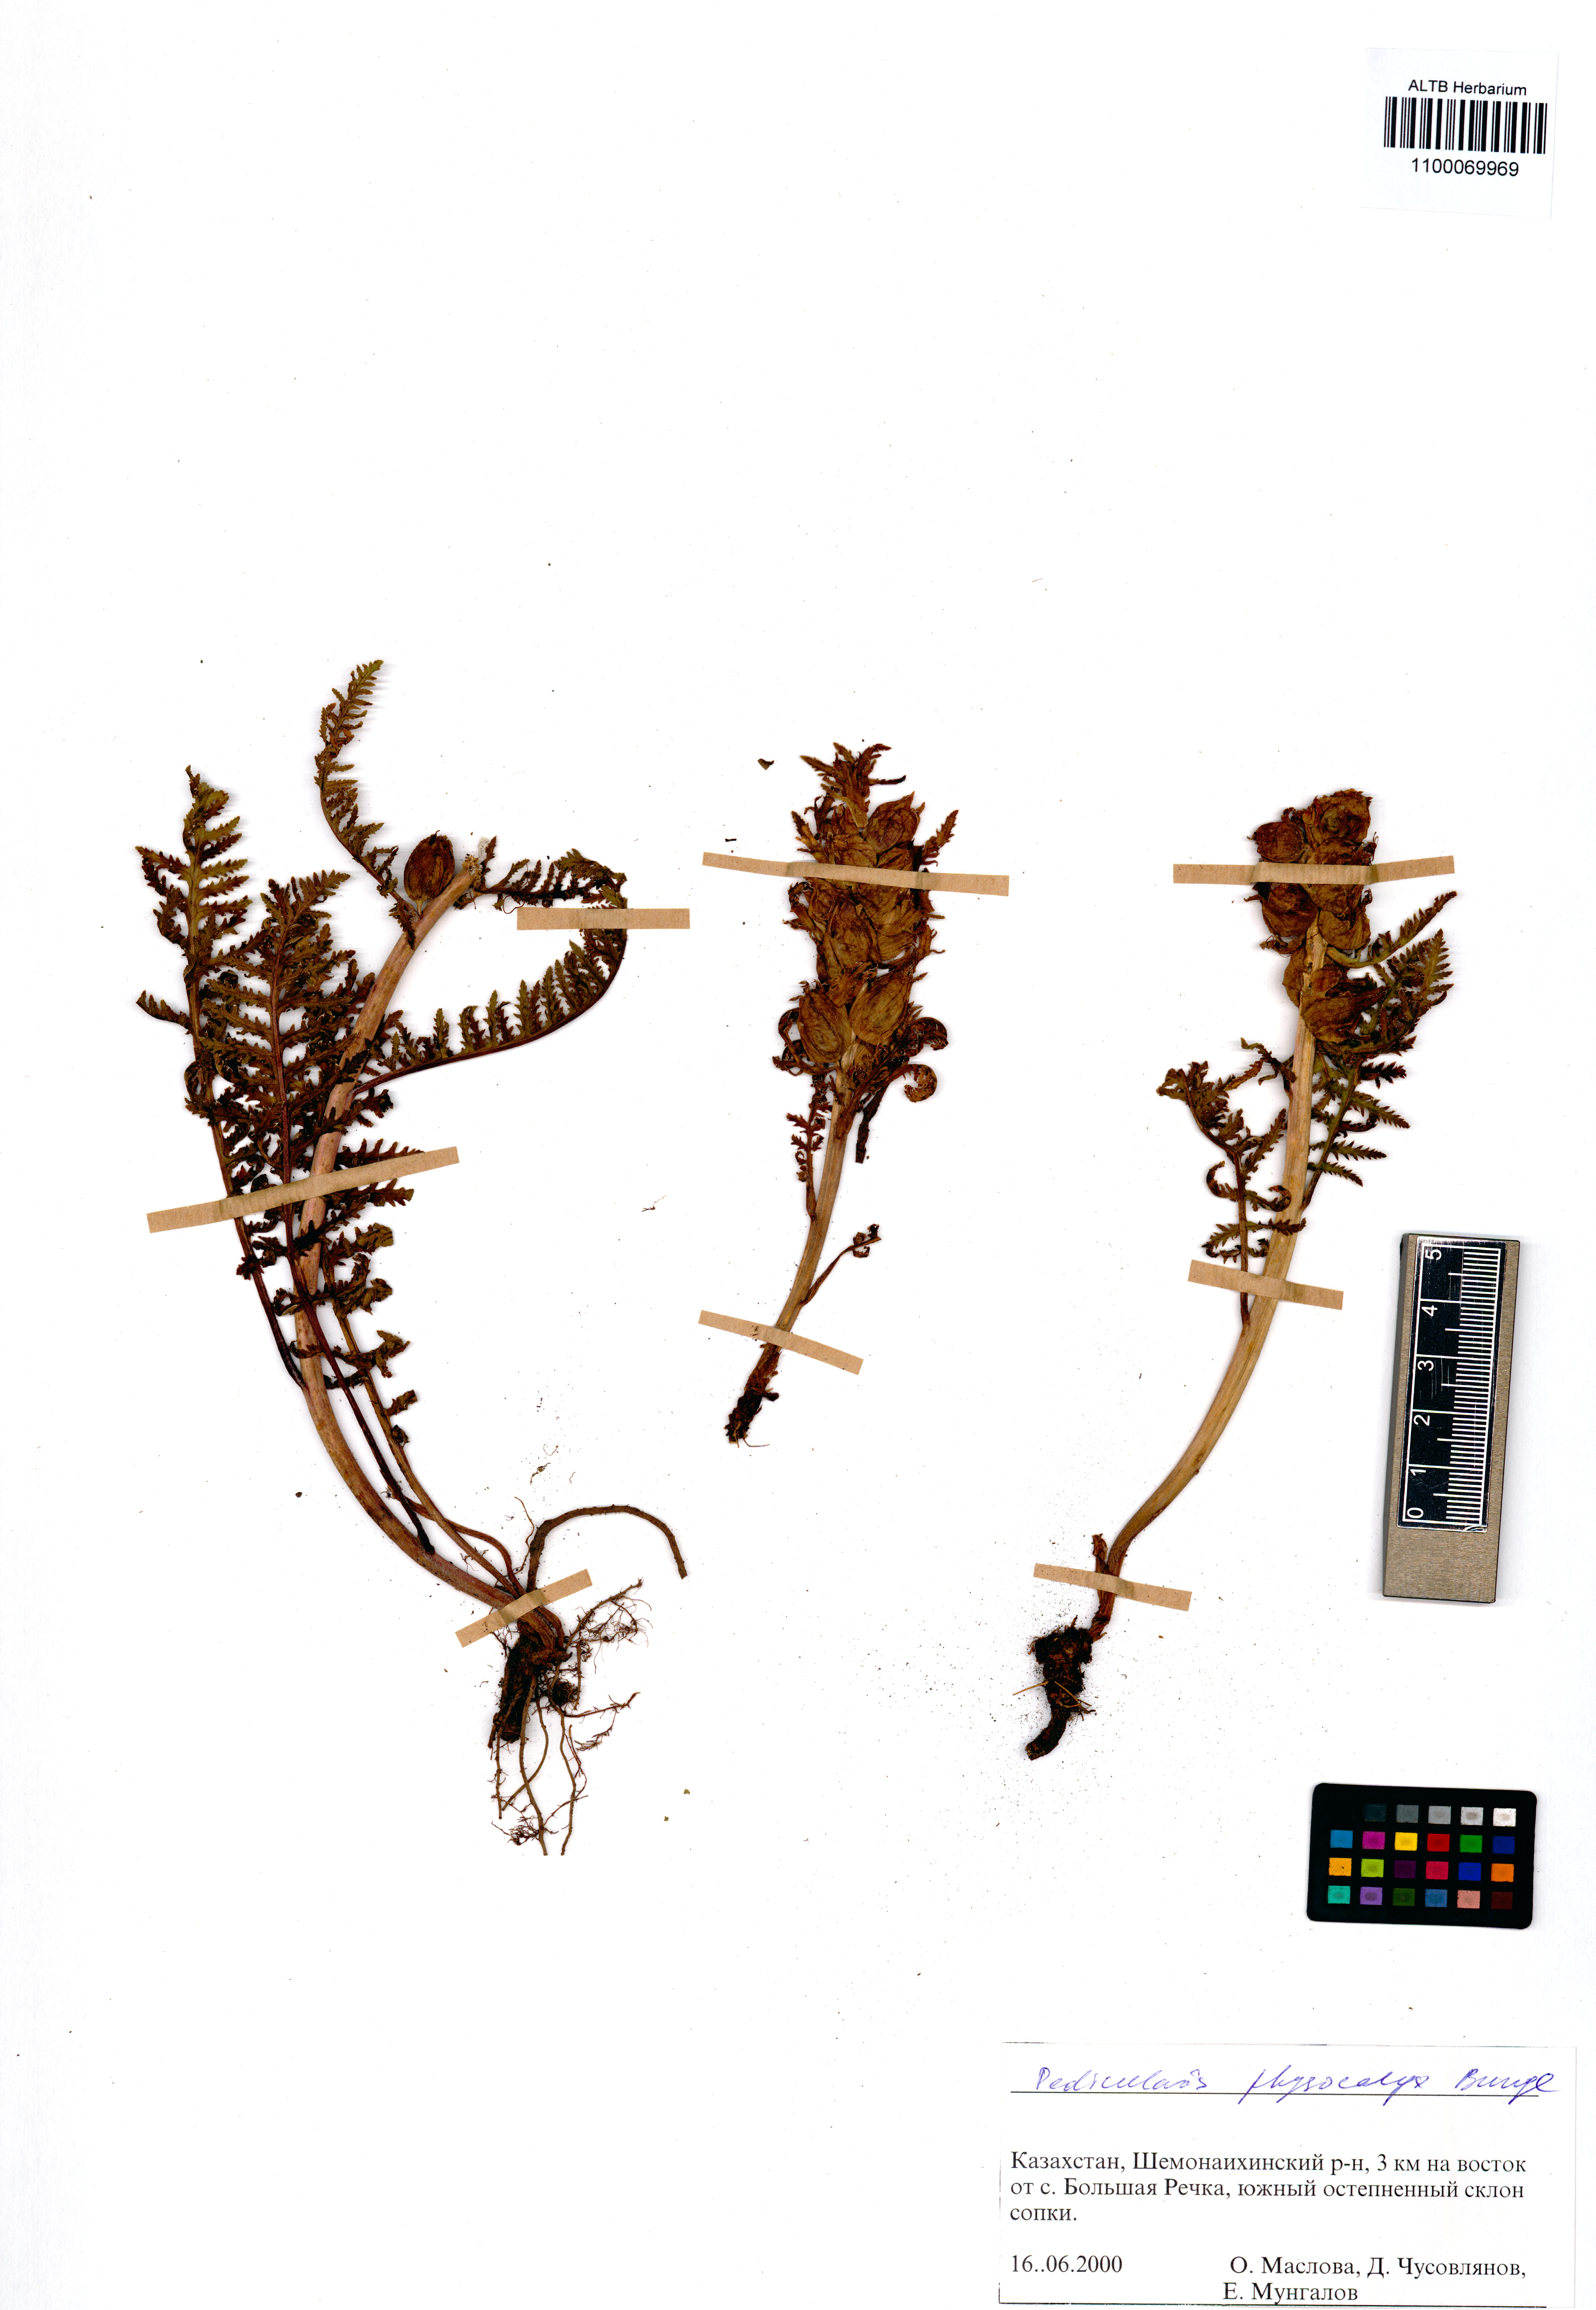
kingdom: Plantae
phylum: Tracheophyta
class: Magnoliopsida
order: Lamiales
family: Orobanchaceae
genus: Pedicularis
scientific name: Pedicularis physocalyx
